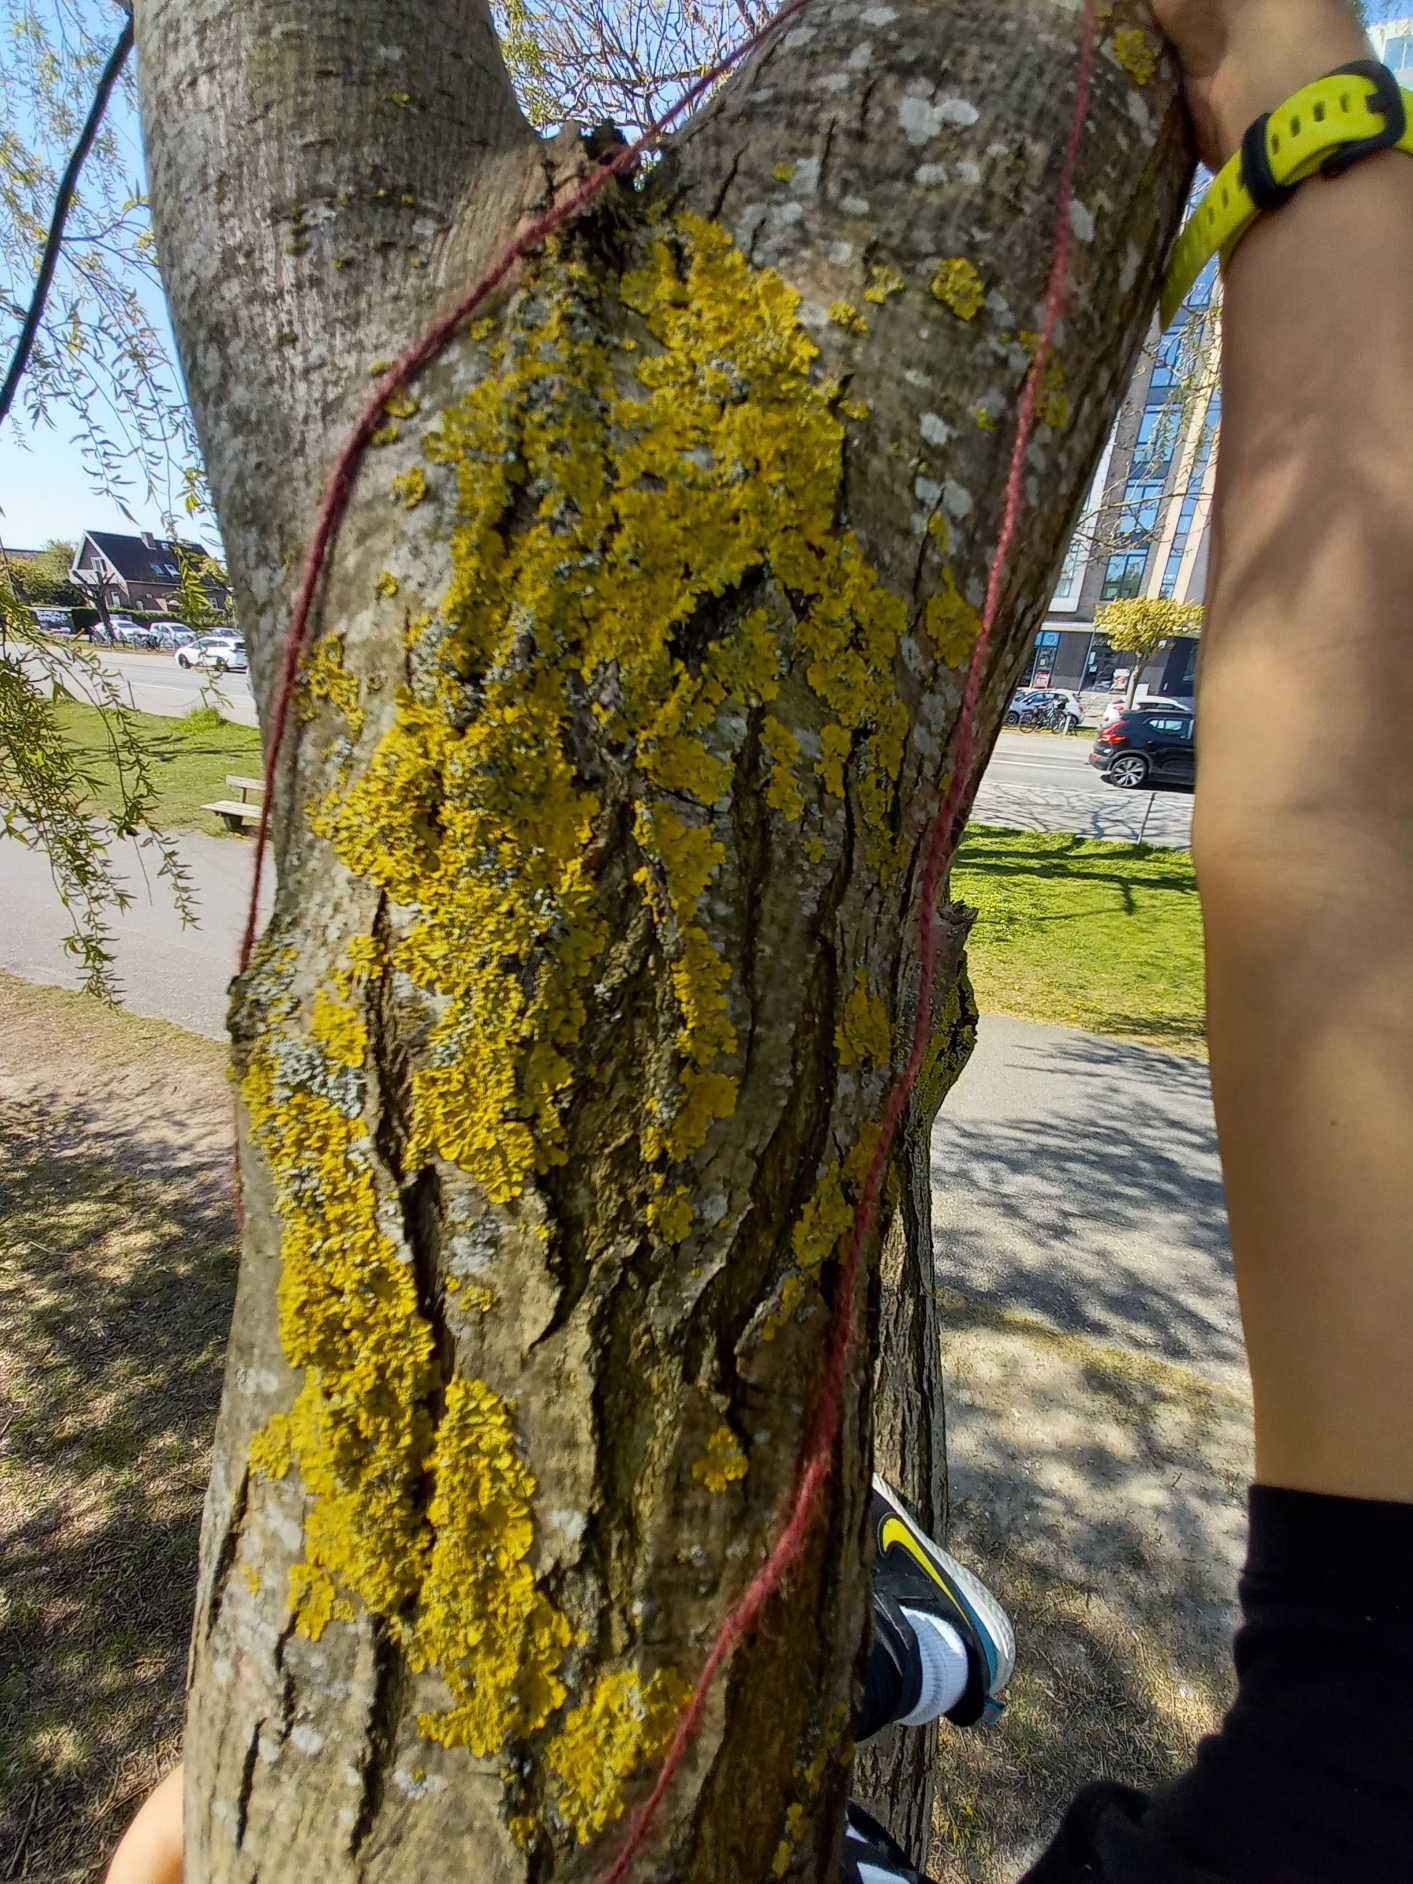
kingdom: Fungi
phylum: Ascomycota
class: Lecanoromycetes
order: Teloschistales
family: Teloschistaceae
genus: Xanthoria
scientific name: Xanthoria parietina
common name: Almindelig væggelav
